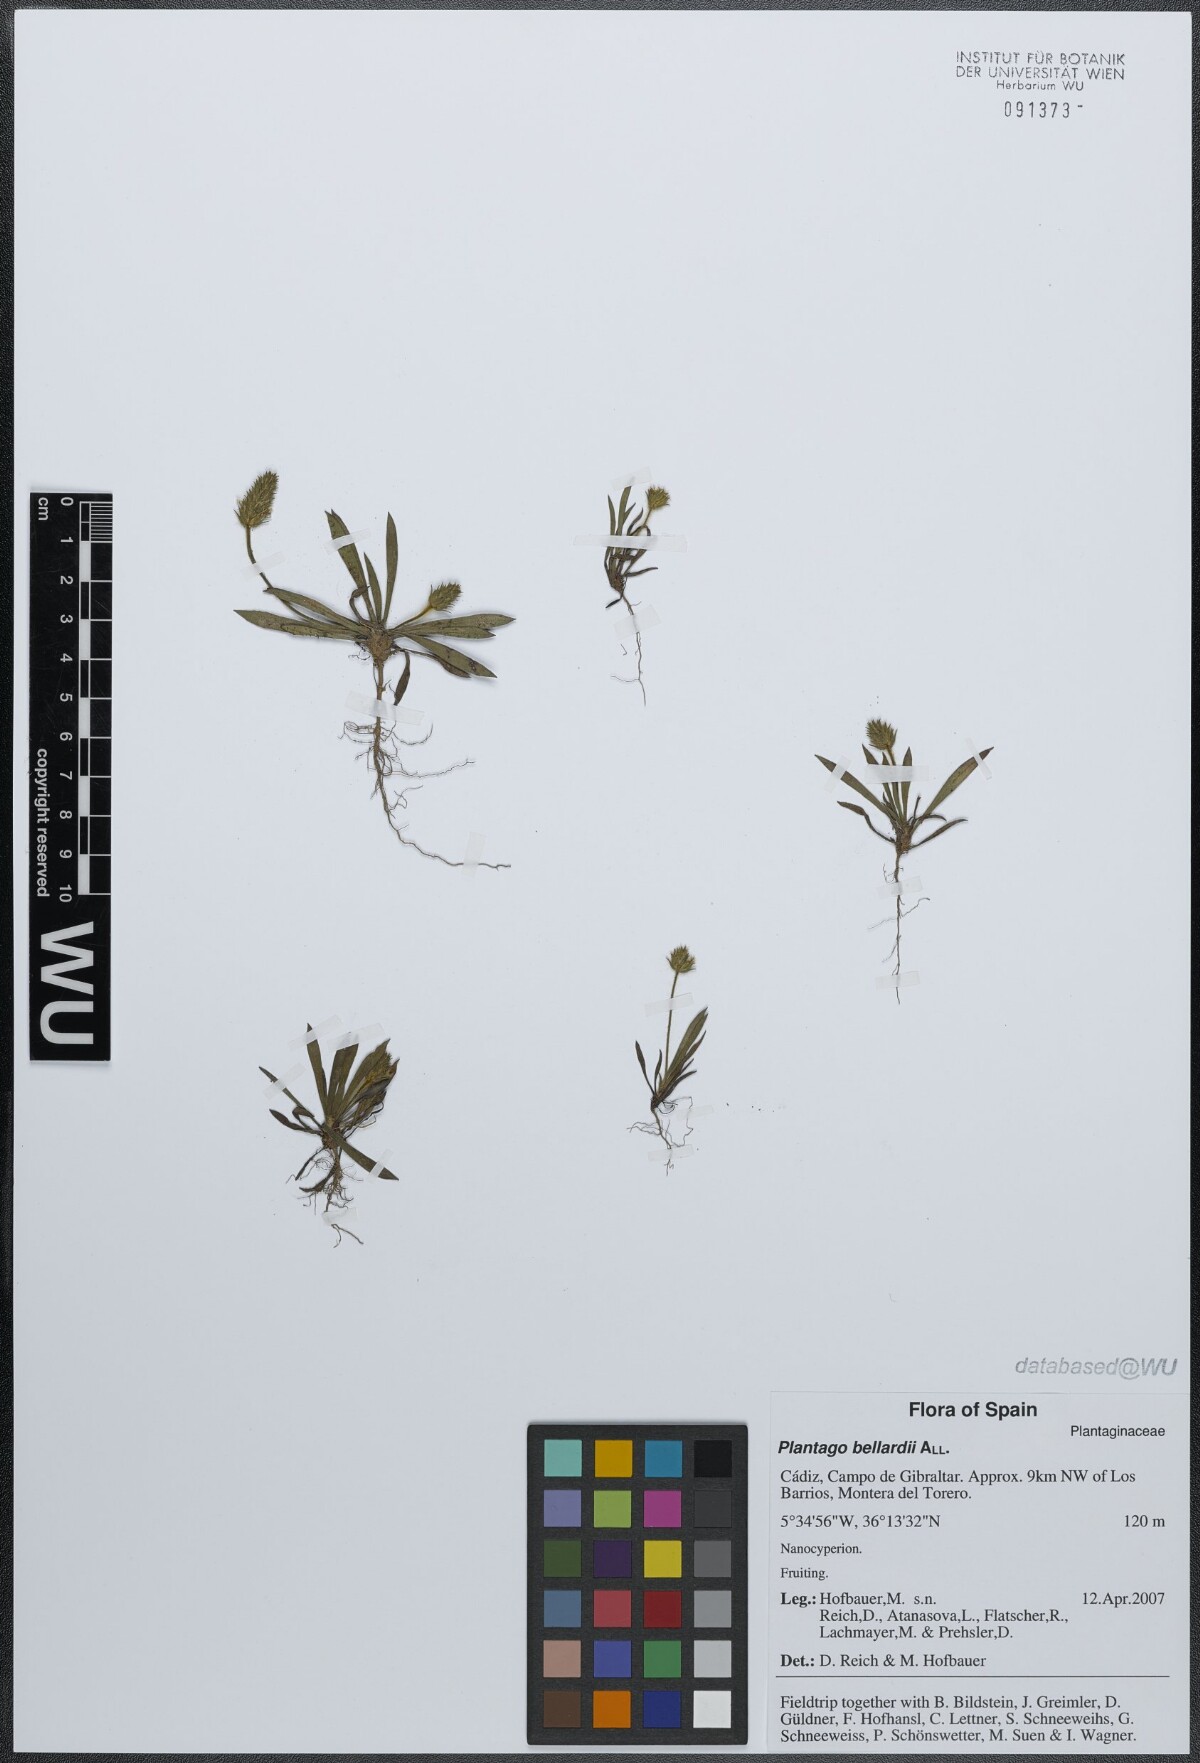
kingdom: Plantae
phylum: Tracheophyta
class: Magnoliopsida
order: Lamiales
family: Plantaginaceae
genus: Plantago
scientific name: Plantago bellardii
